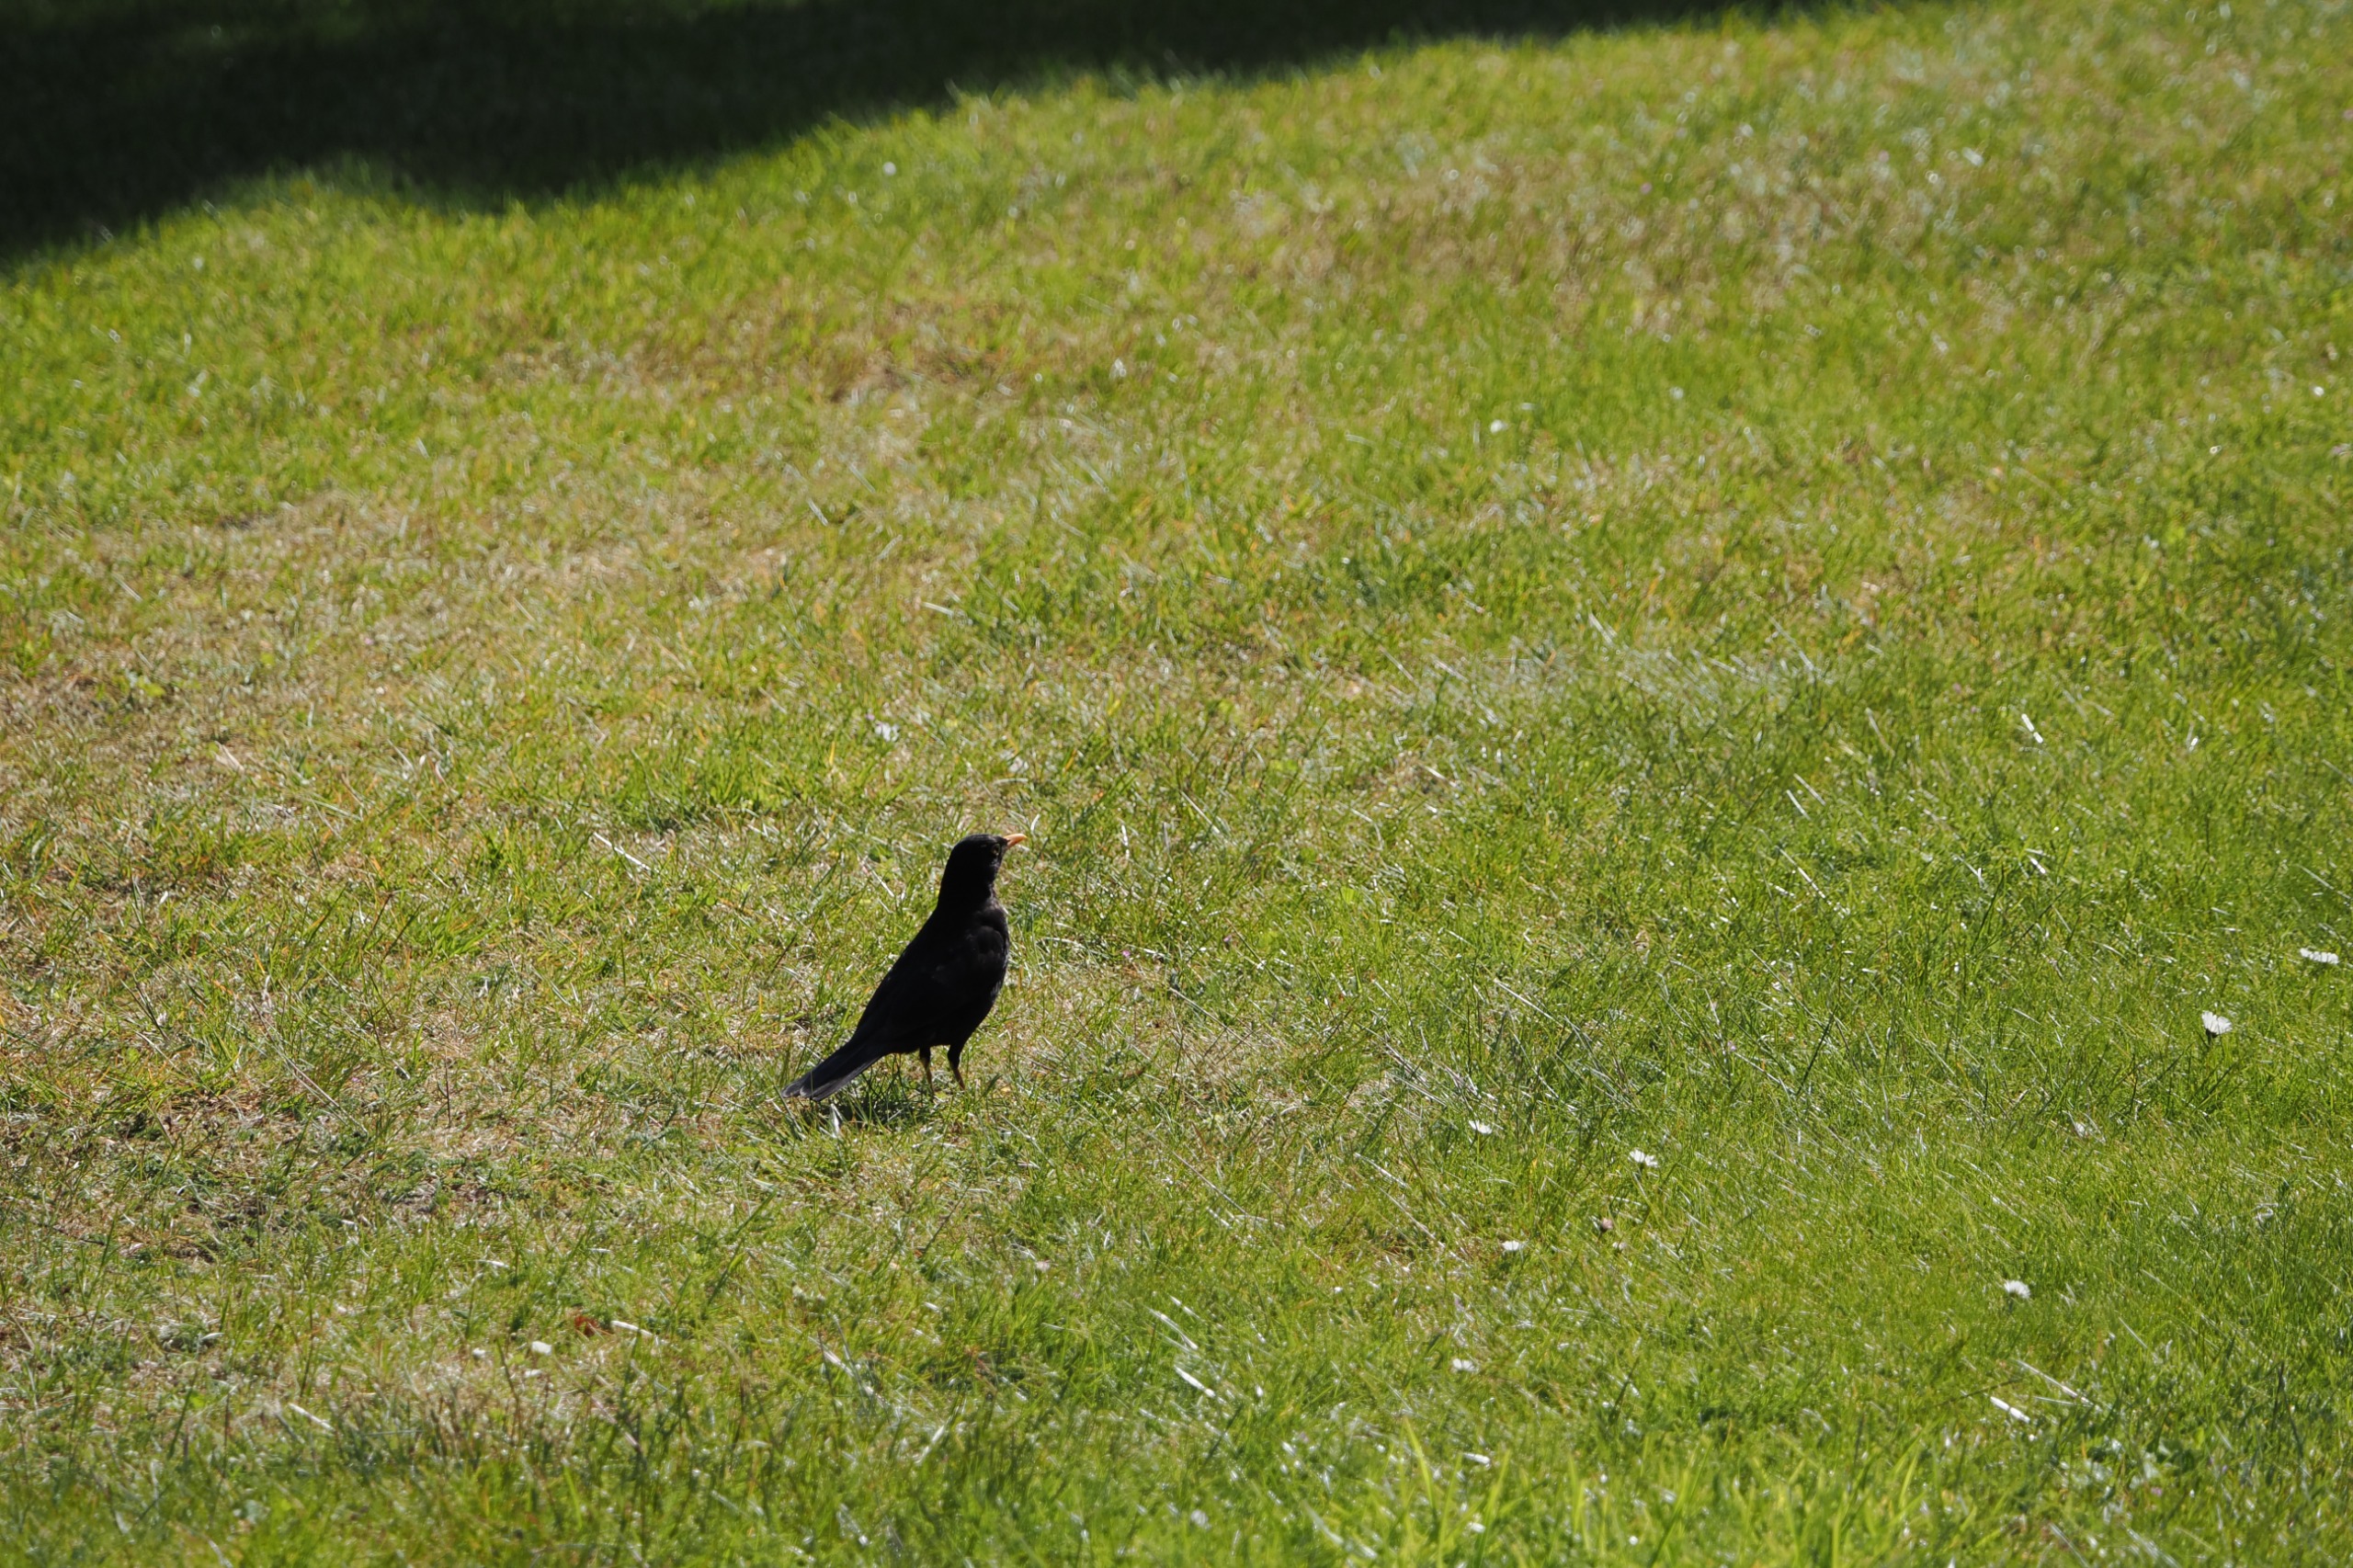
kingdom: Animalia
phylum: Chordata
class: Aves
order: Passeriformes
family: Turdidae
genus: Turdus
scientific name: Turdus merula
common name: Solsort
